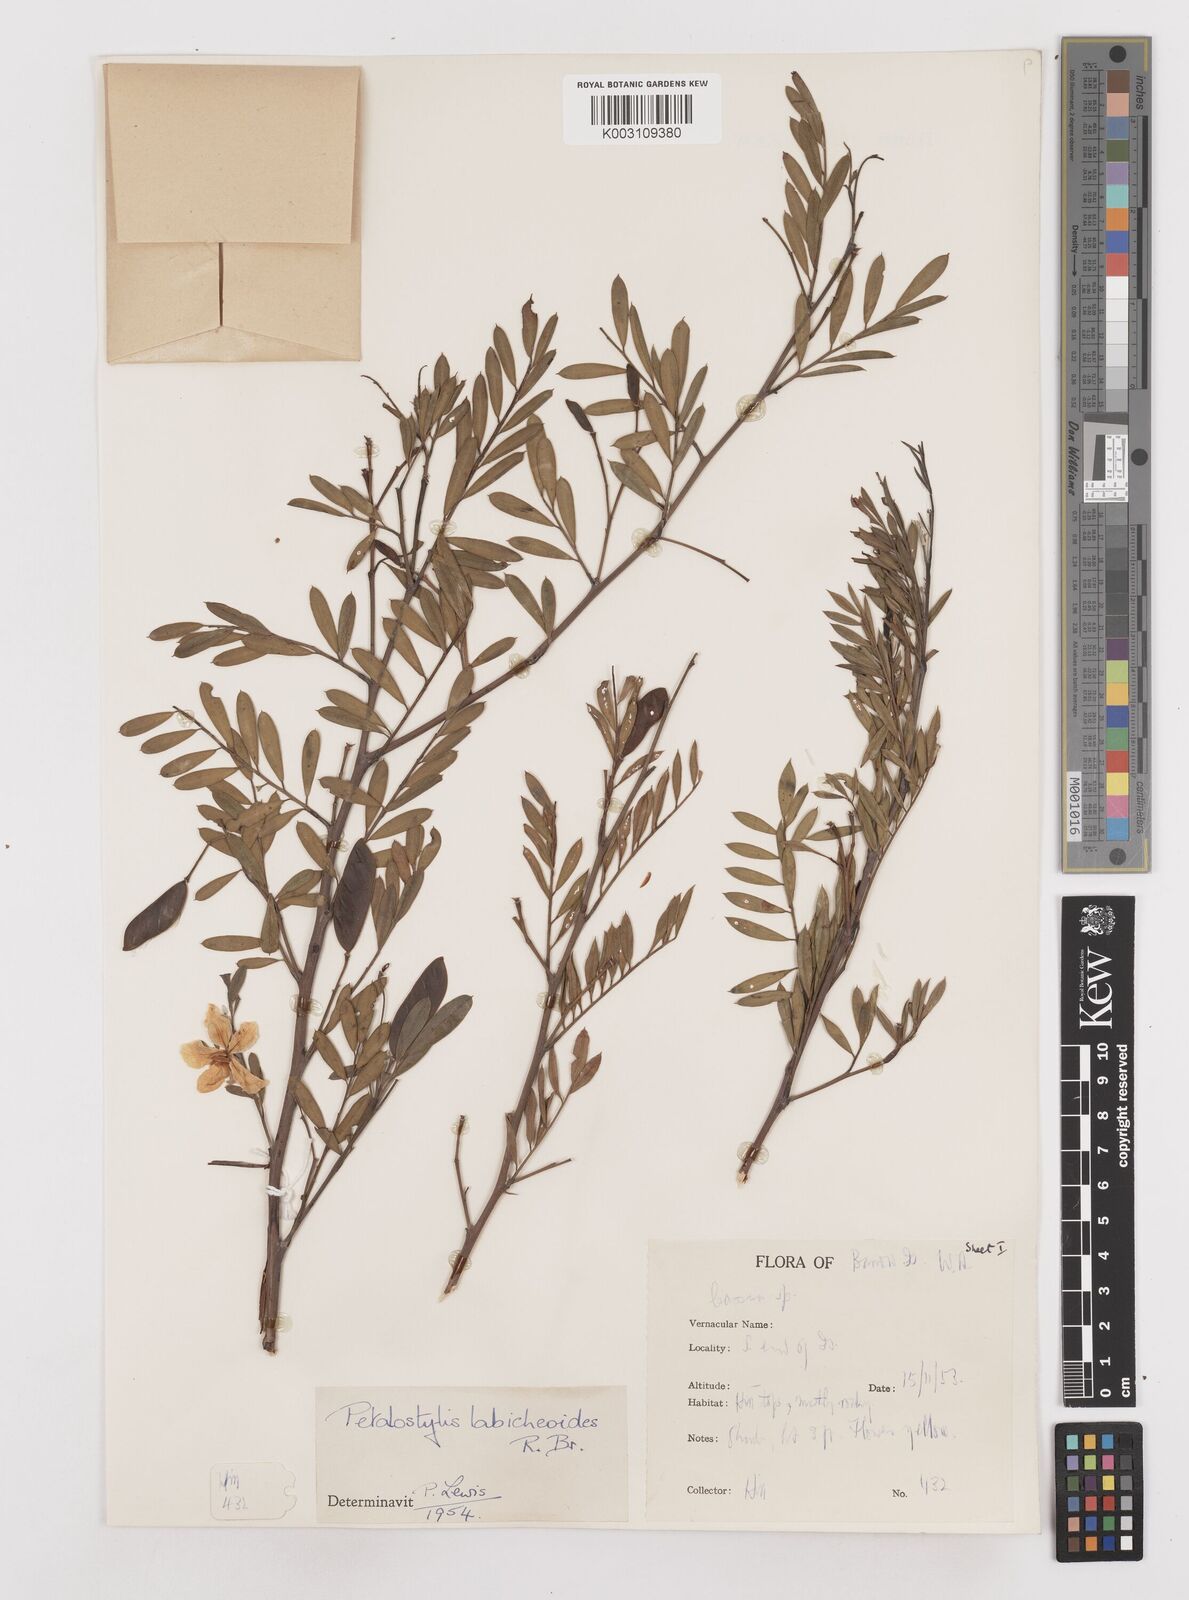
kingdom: Plantae
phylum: Tracheophyta
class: Magnoliopsida
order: Fabales
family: Fabaceae
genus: Petalostylis
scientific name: Petalostylis labicheoides
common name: Butterfly bush
